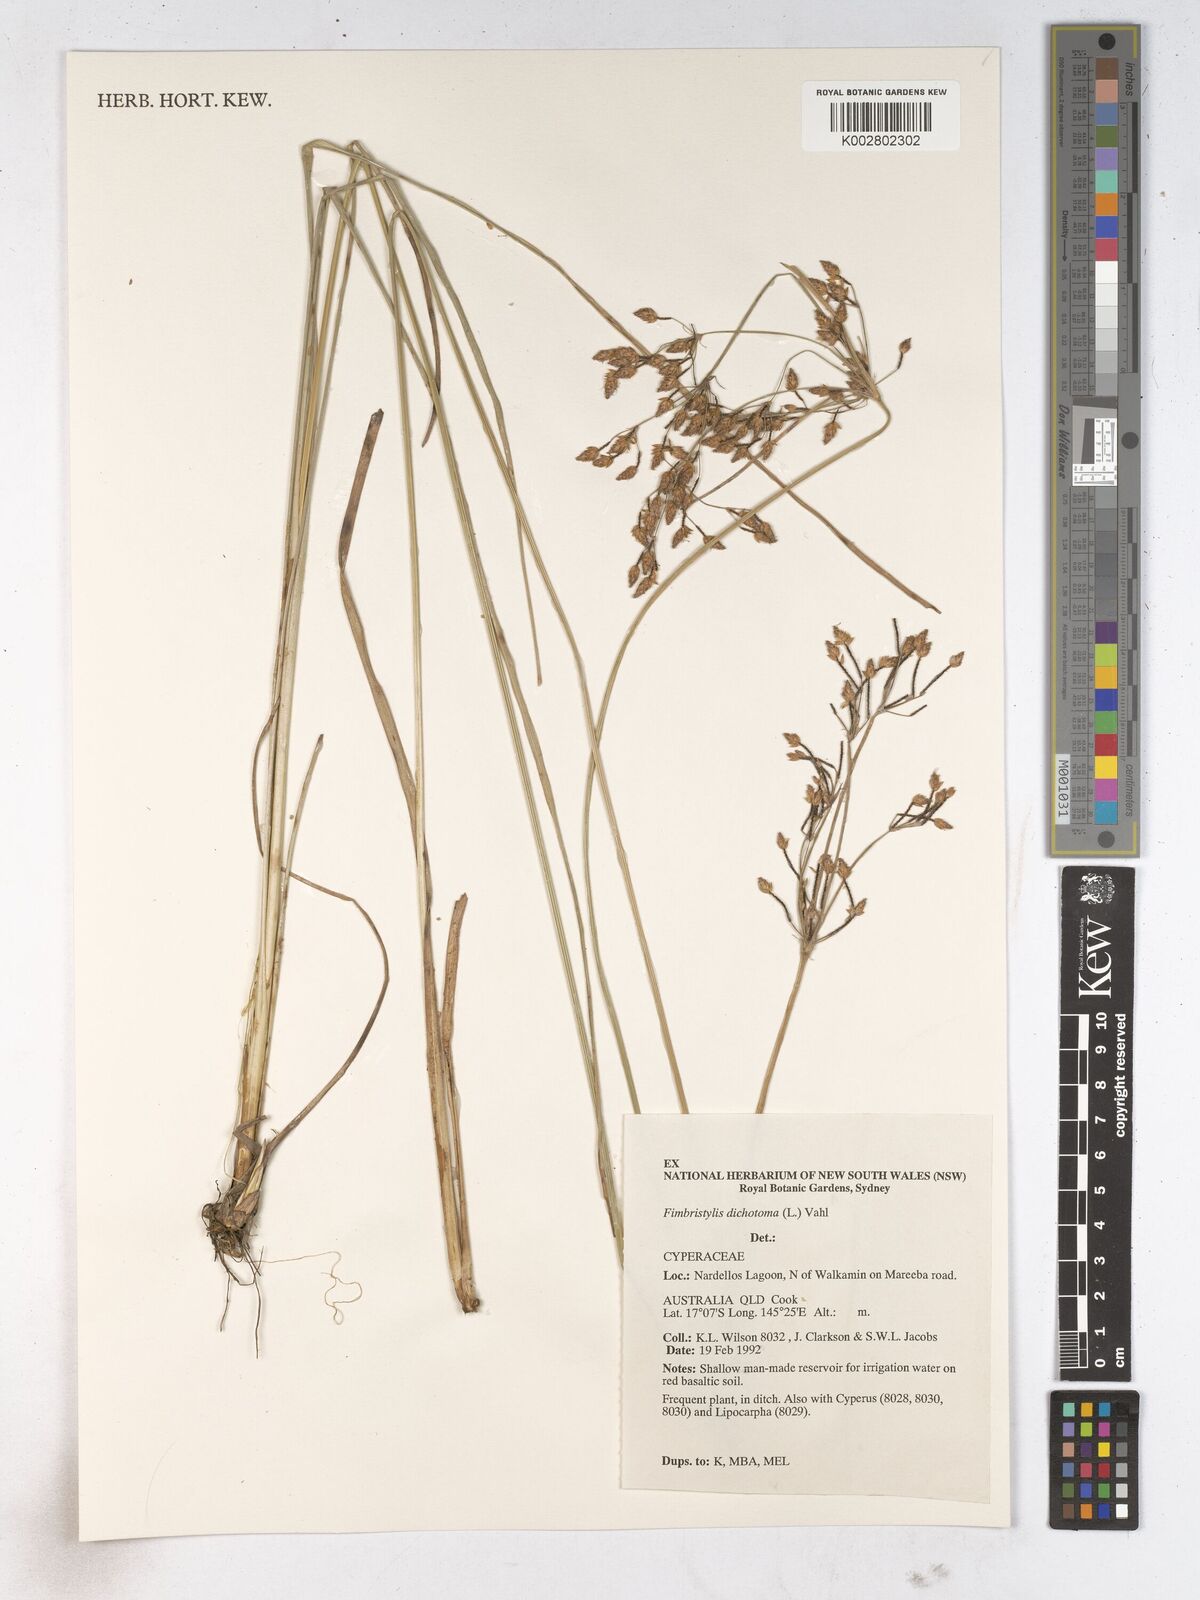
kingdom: Plantae
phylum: Tracheophyta
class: Liliopsida
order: Poales
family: Cyperaceae
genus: Fimbristylis
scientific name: Fimbristylis dichotoma
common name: Forked fimbry
